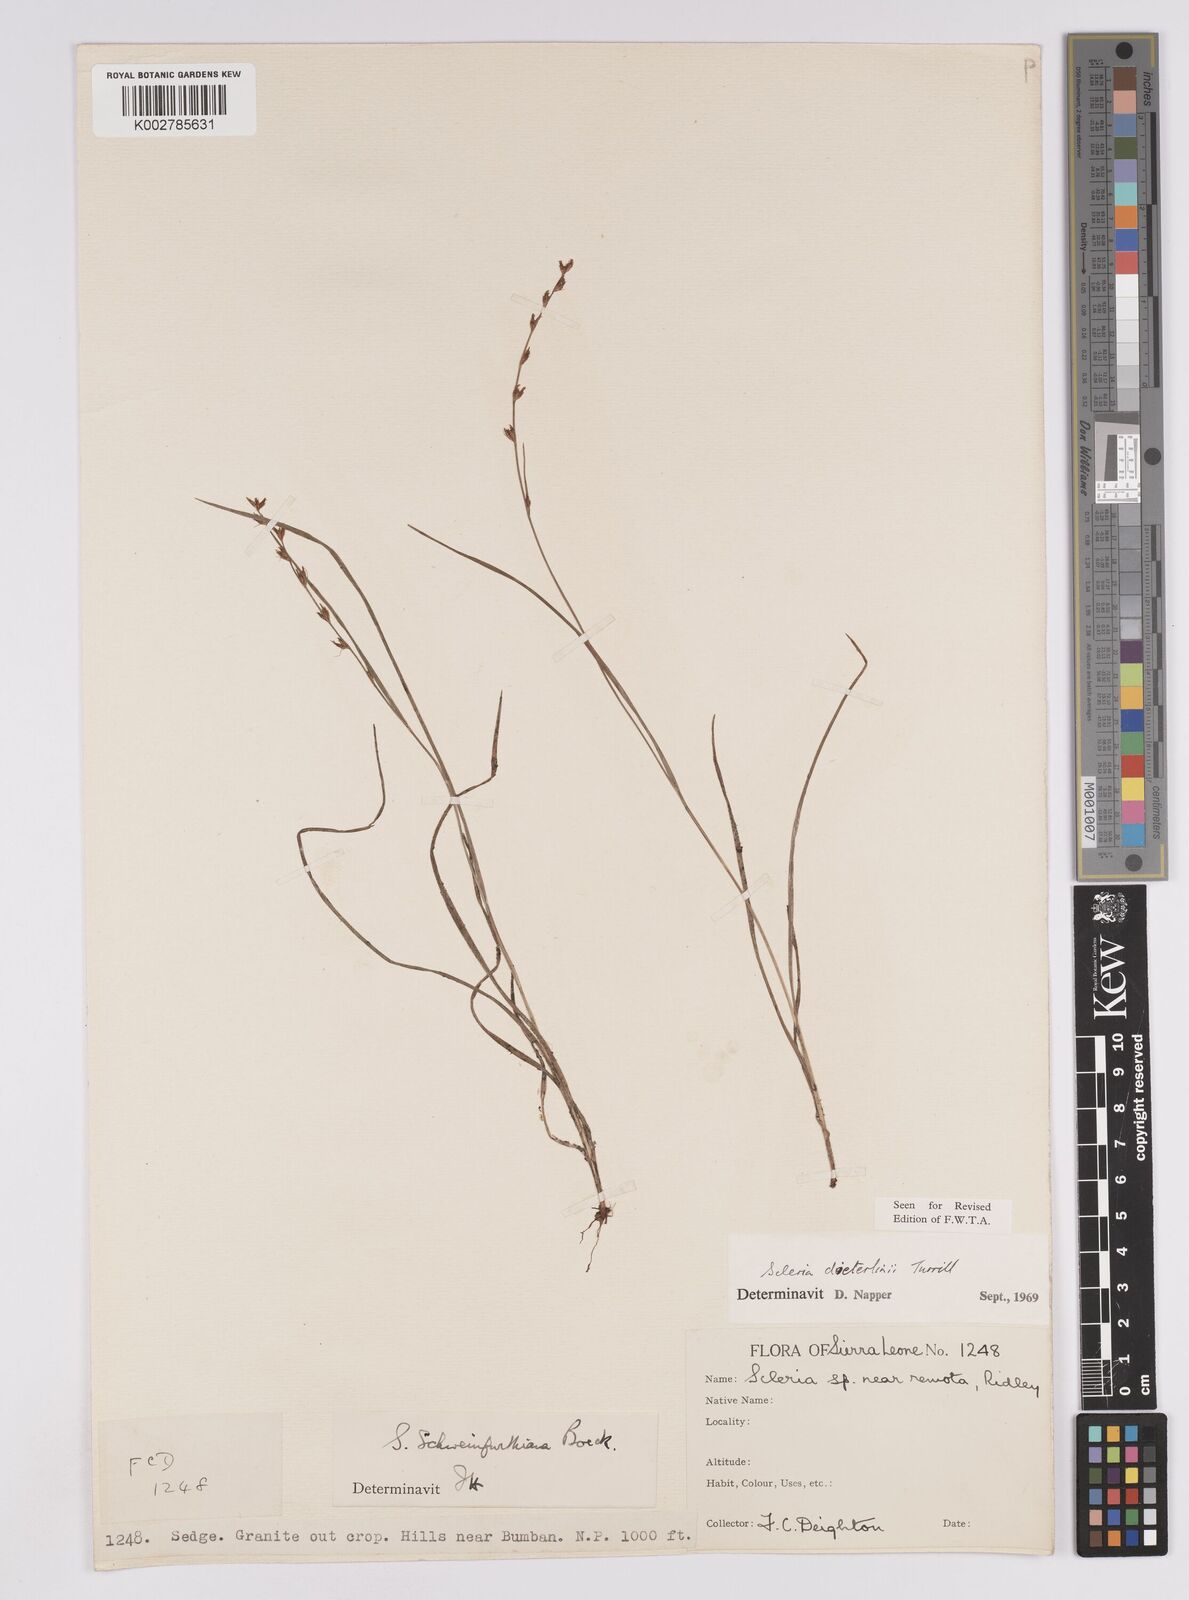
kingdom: Plantae
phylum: Tracheophyta
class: Liliopsida
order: Poales
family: Cyperaceae
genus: Scleria
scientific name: Scleria flexuosa
